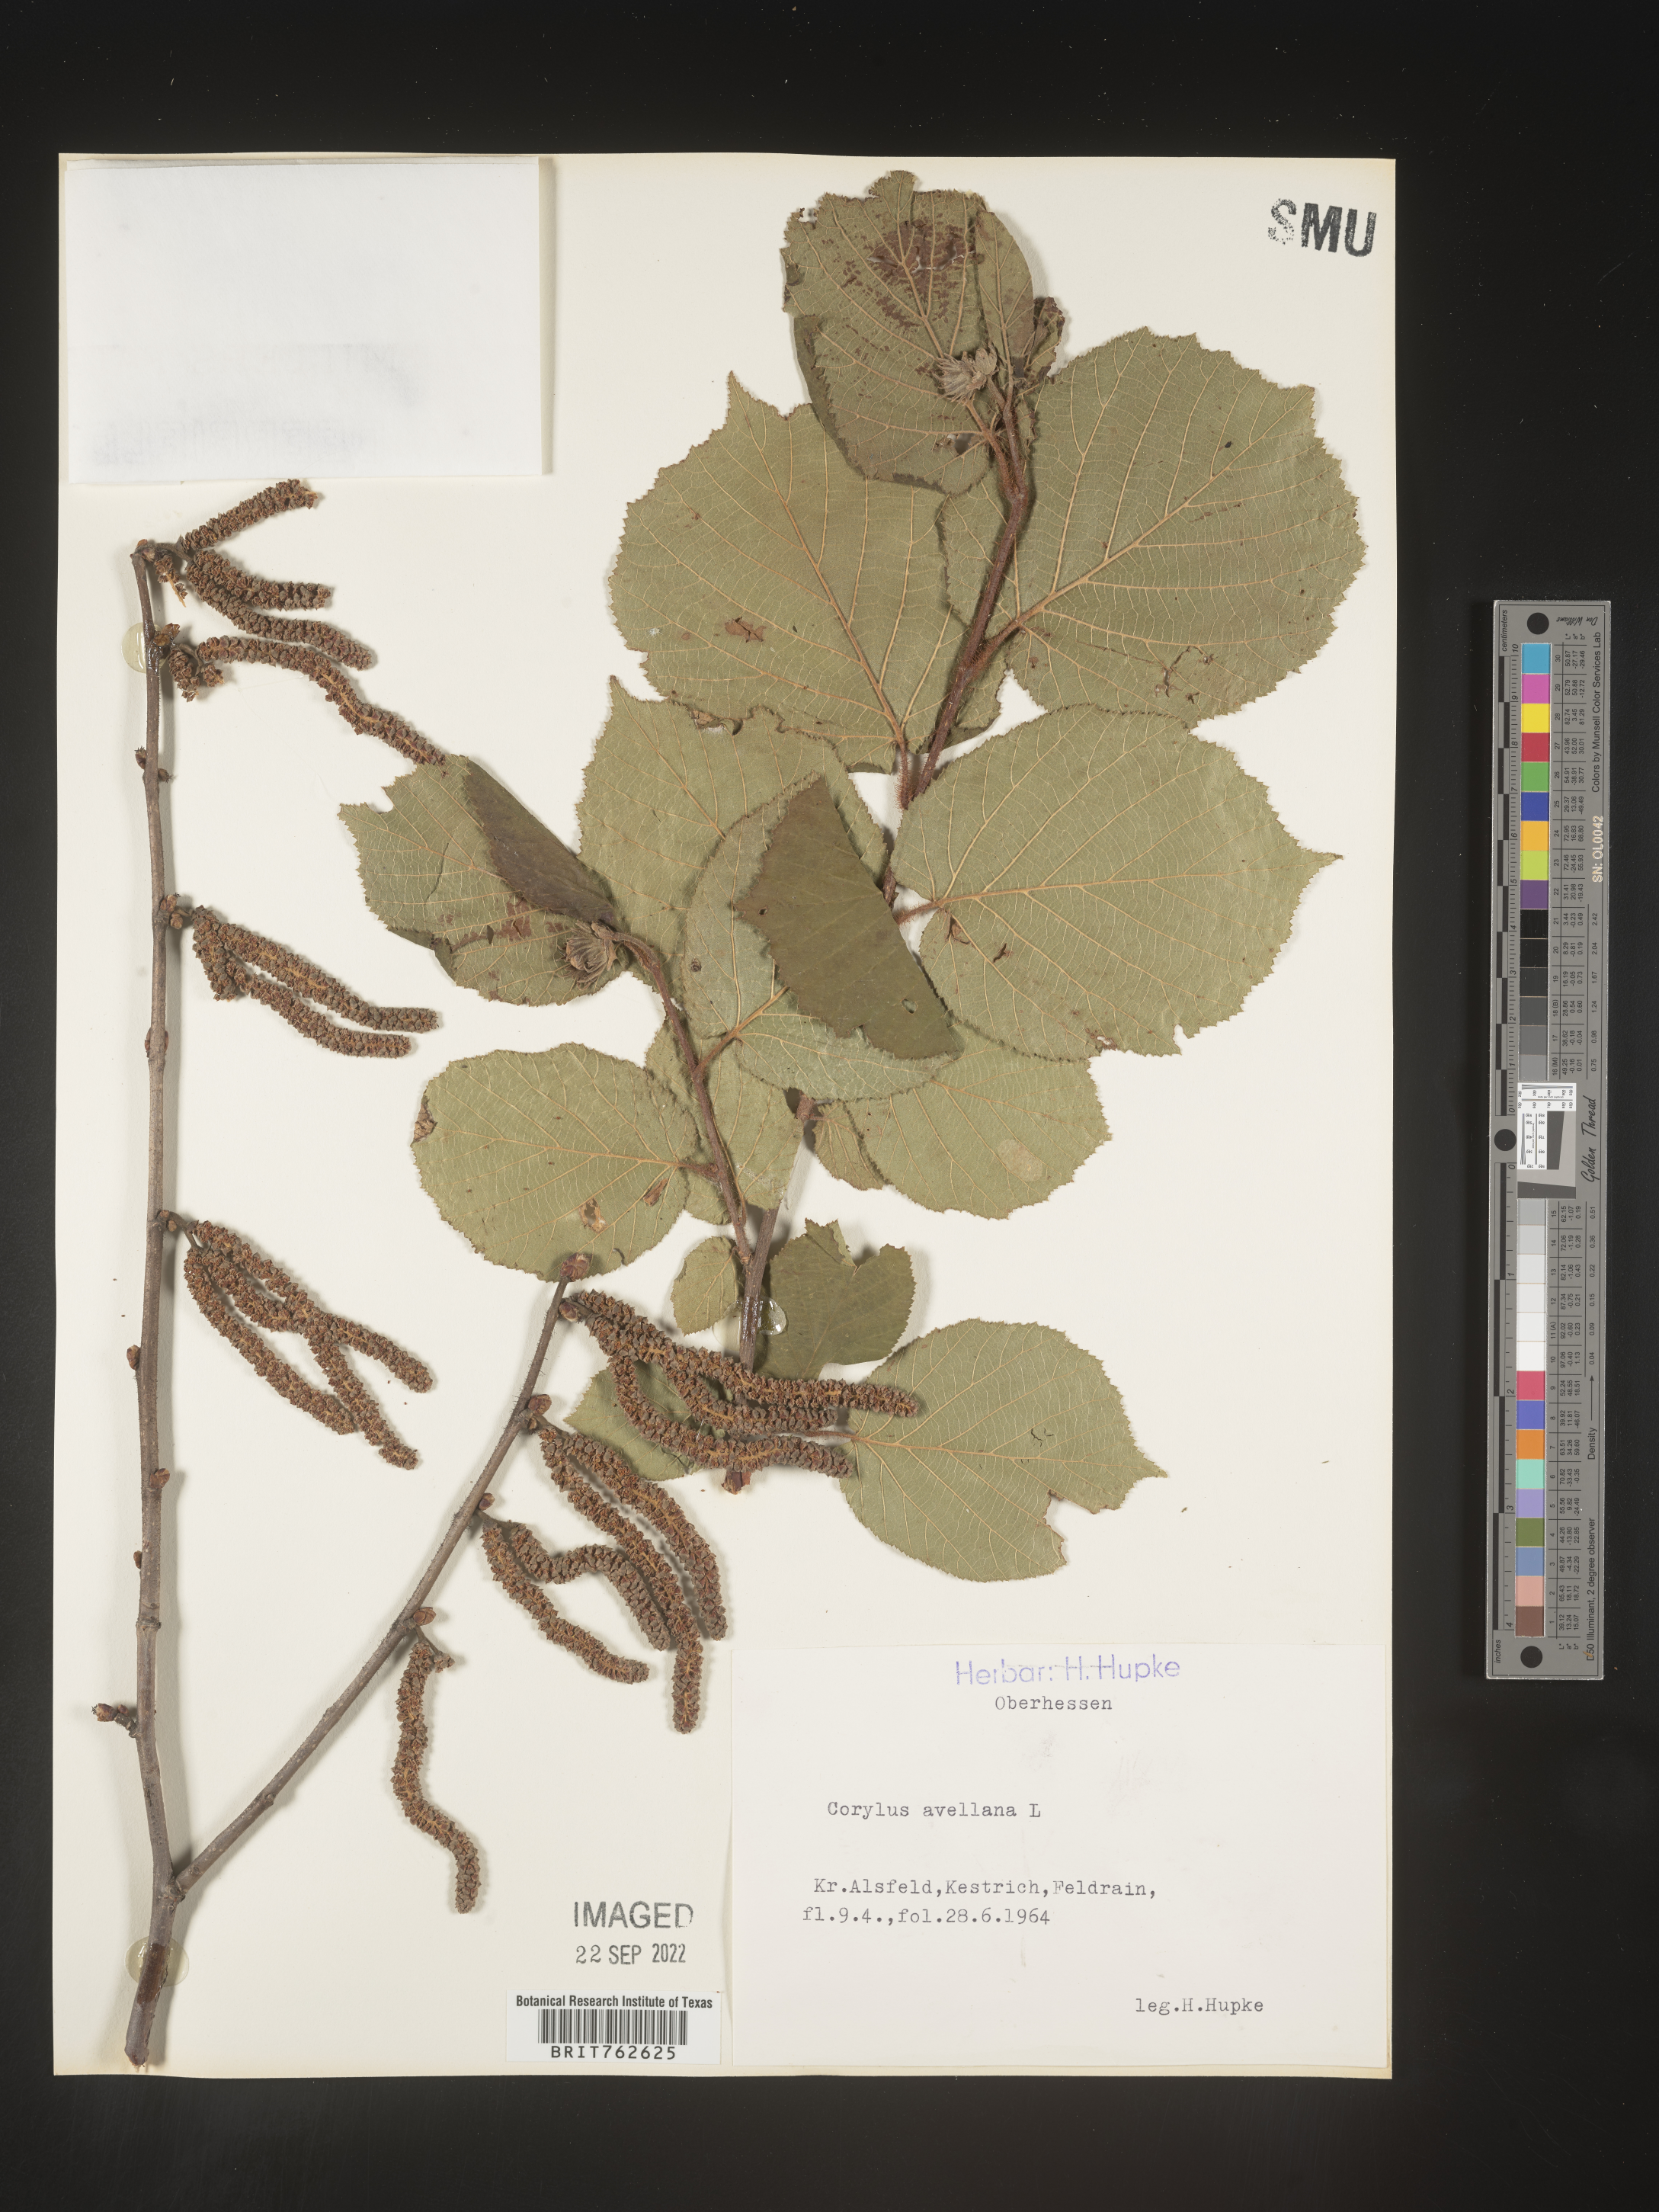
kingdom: Plantae
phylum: Tracheophyta
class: Magnoliopsida
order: Fagales
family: Betulaceae
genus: Corylus
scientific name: Corylus
